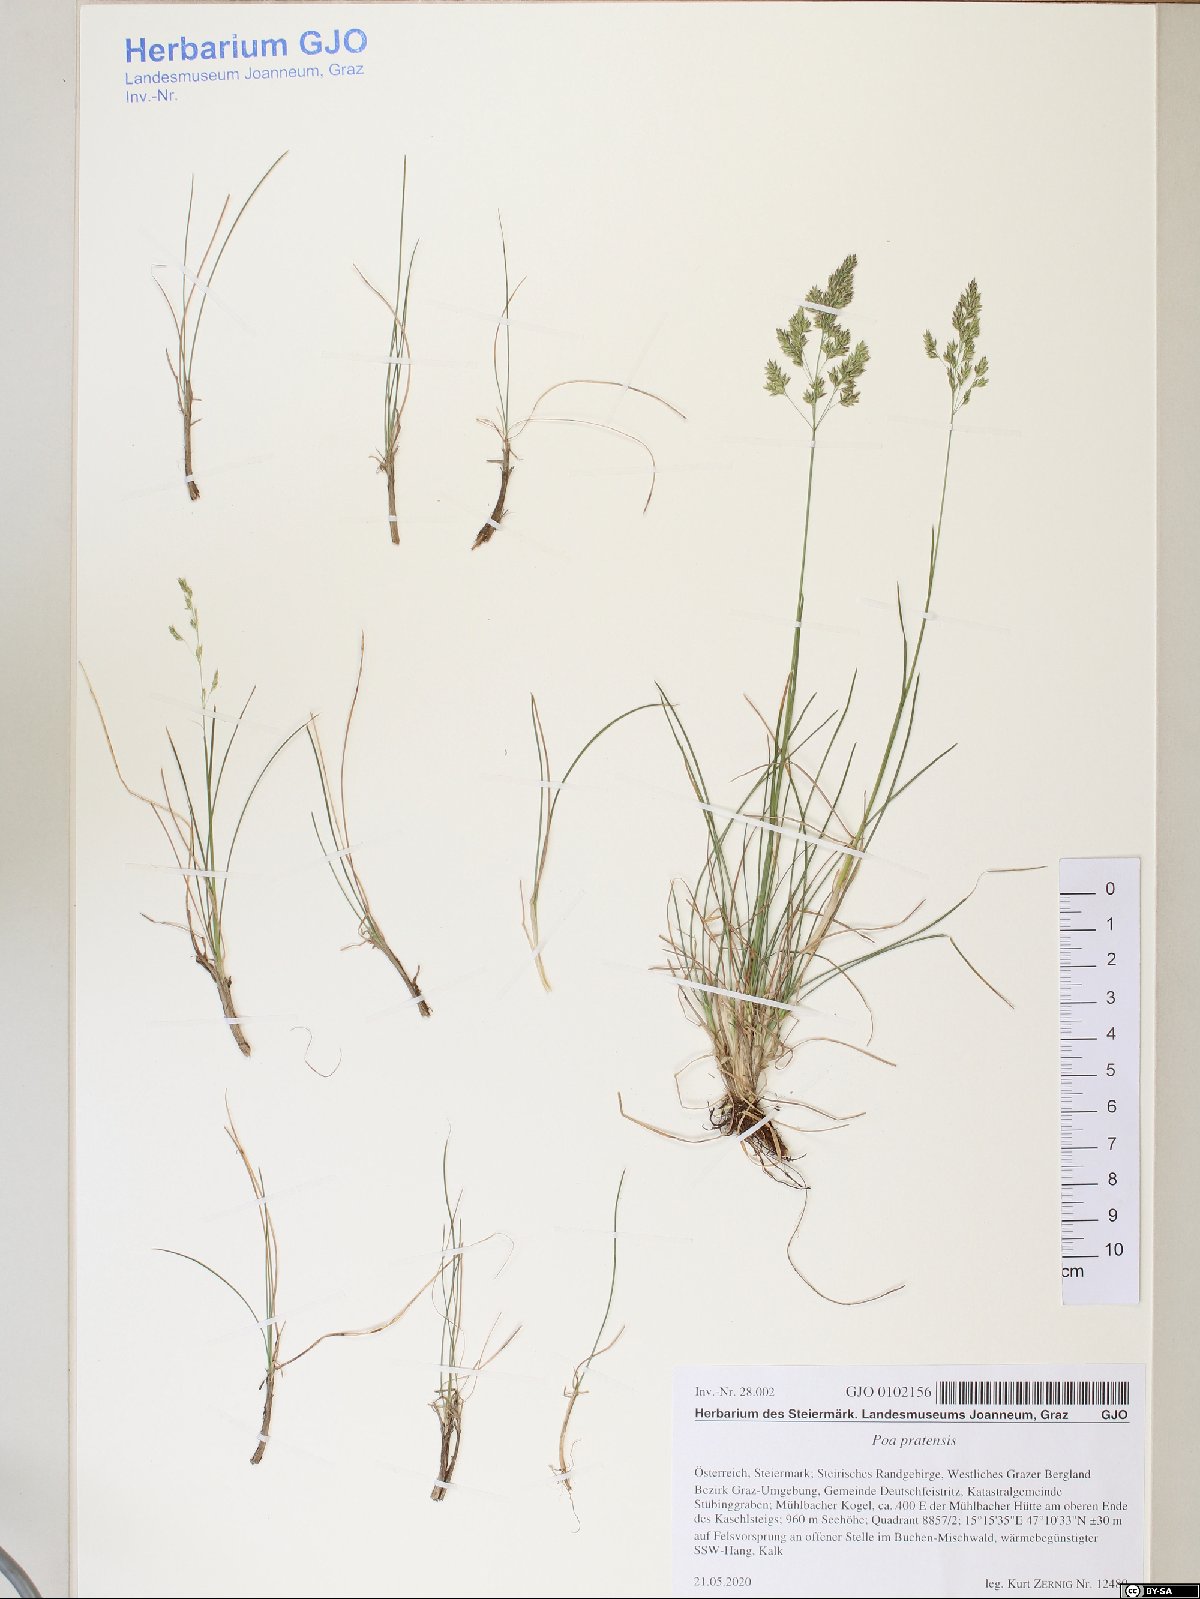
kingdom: Plantae
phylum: Tracheophyta
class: Liliopsida
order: Poales
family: Poaceae
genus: Poa
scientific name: Poa pratensis
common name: Kentucky bluegrass
